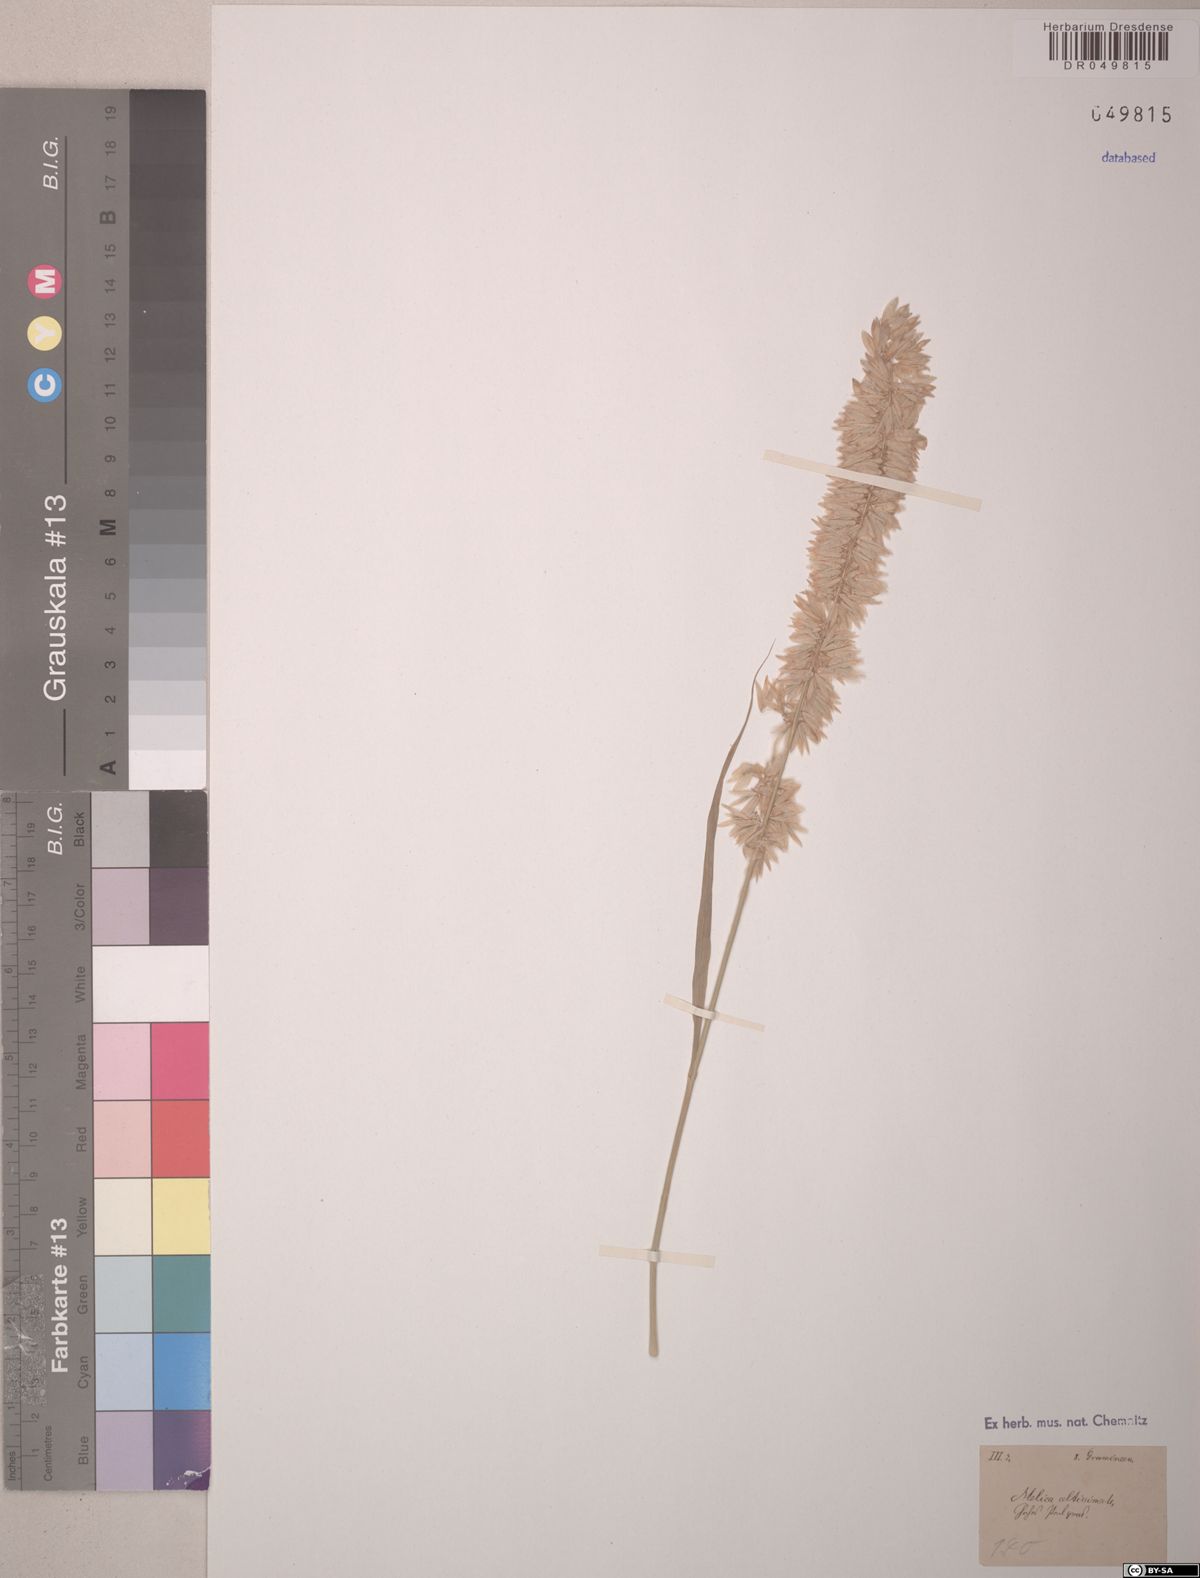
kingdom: Plantae
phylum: Tracheophyta
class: Liliopsida
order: Poales
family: Poaceae
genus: Melica
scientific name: Melica altissima
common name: Siberian melicgrass
